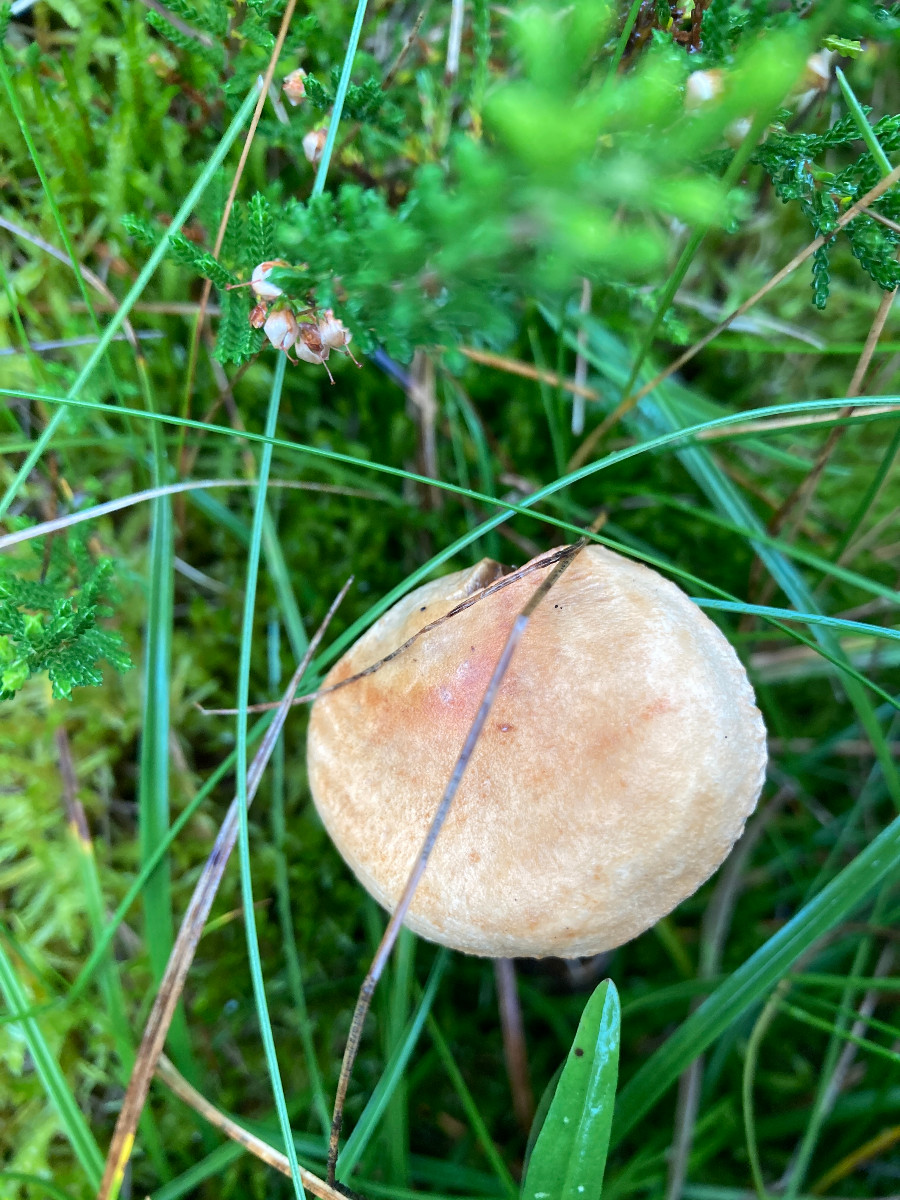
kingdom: Fungi
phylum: Basidiomycota
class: Agaricomycetes
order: Agaricales
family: Tricholomataceae
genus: Tricholoma
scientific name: Tricholoma psammopus
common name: grynstokket ridderhat
